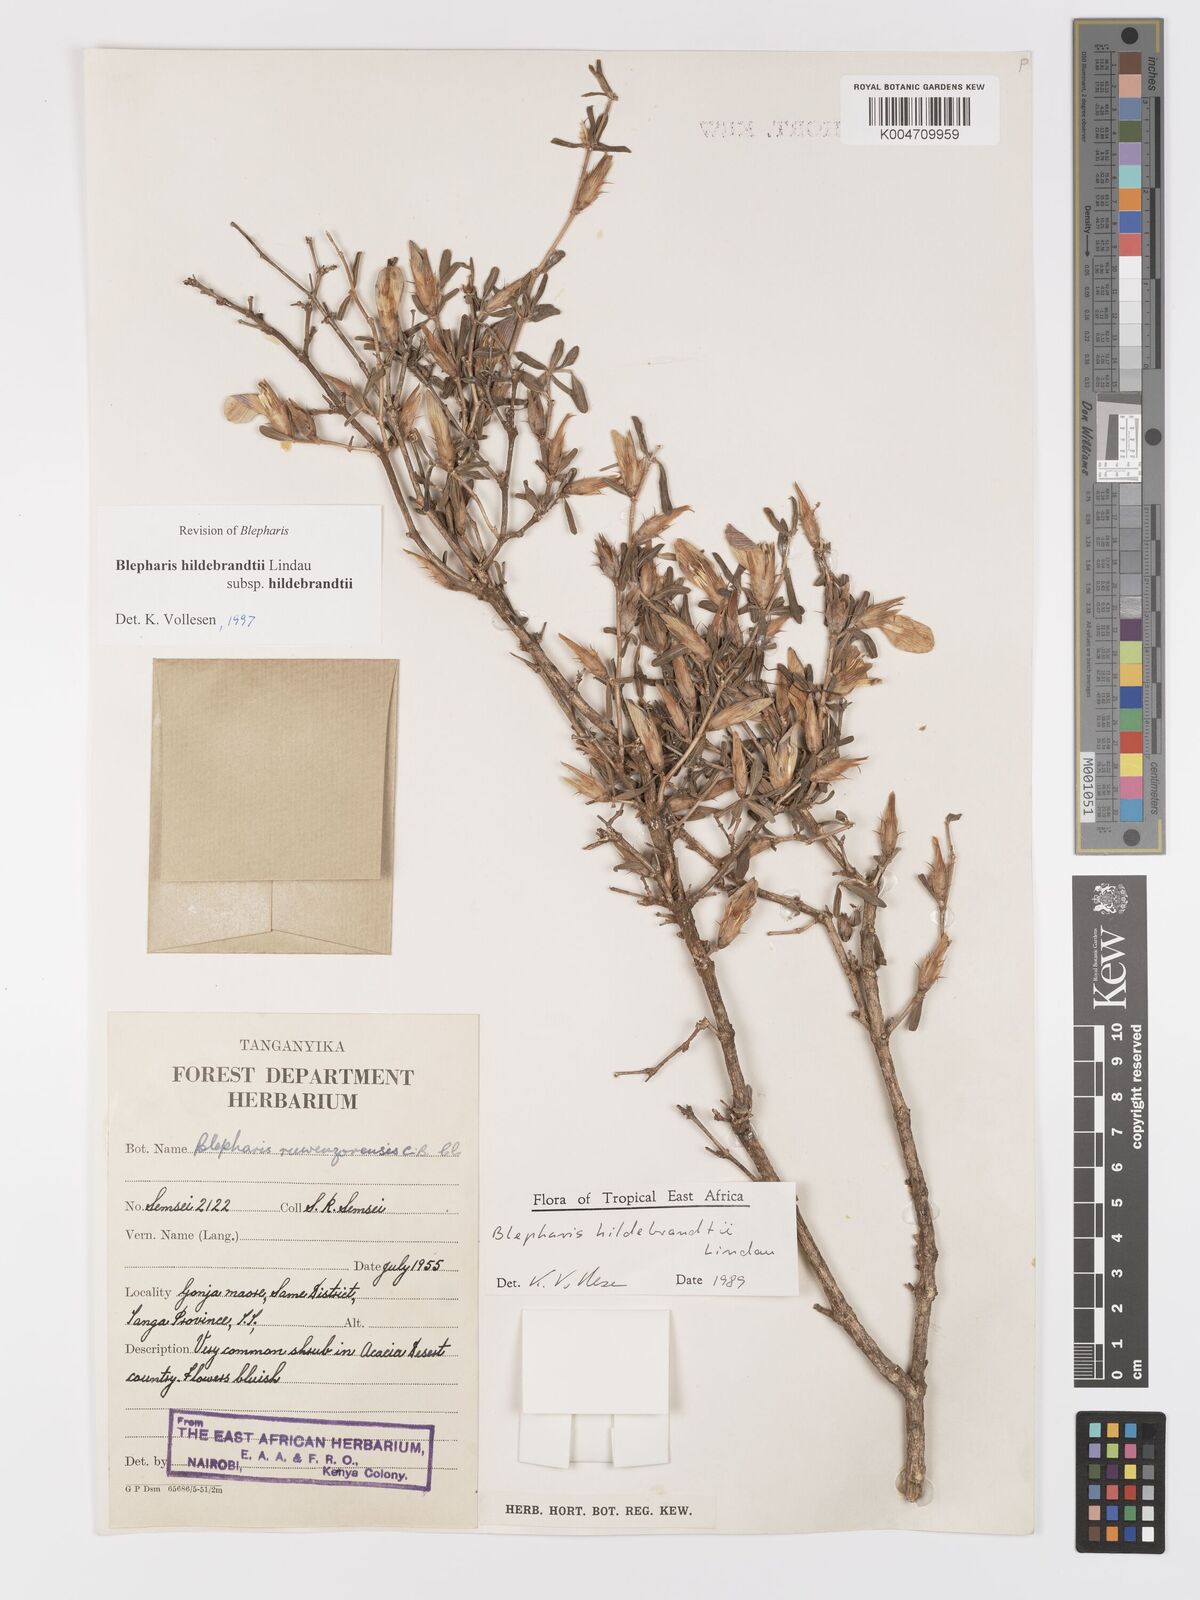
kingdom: Plantae
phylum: Tracheophyta
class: Magnoliopsida
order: Lamiales
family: Acanthaceae
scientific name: Acanthaceae
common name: Acanthaceae
